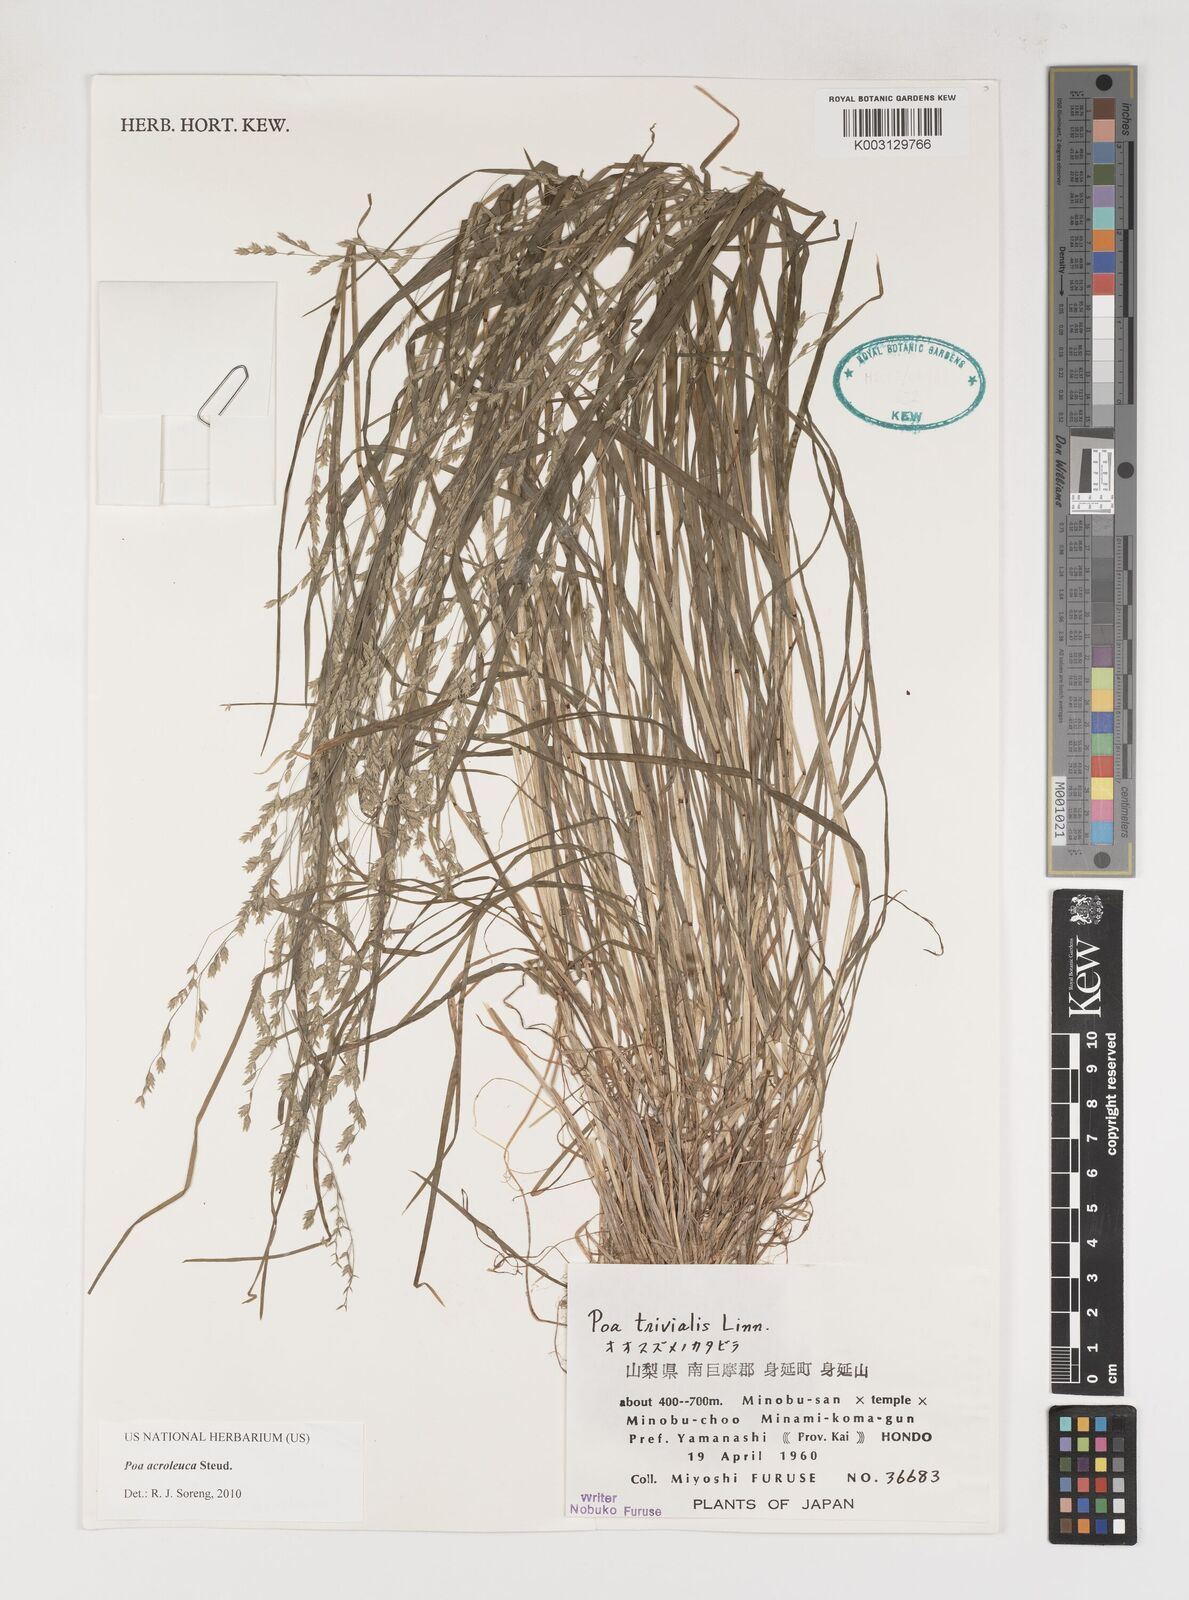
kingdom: Plantae
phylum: Tracheophyta
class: Liliopsida
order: Poales
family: Poaceae
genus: Poa
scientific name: Poa acroleuca
